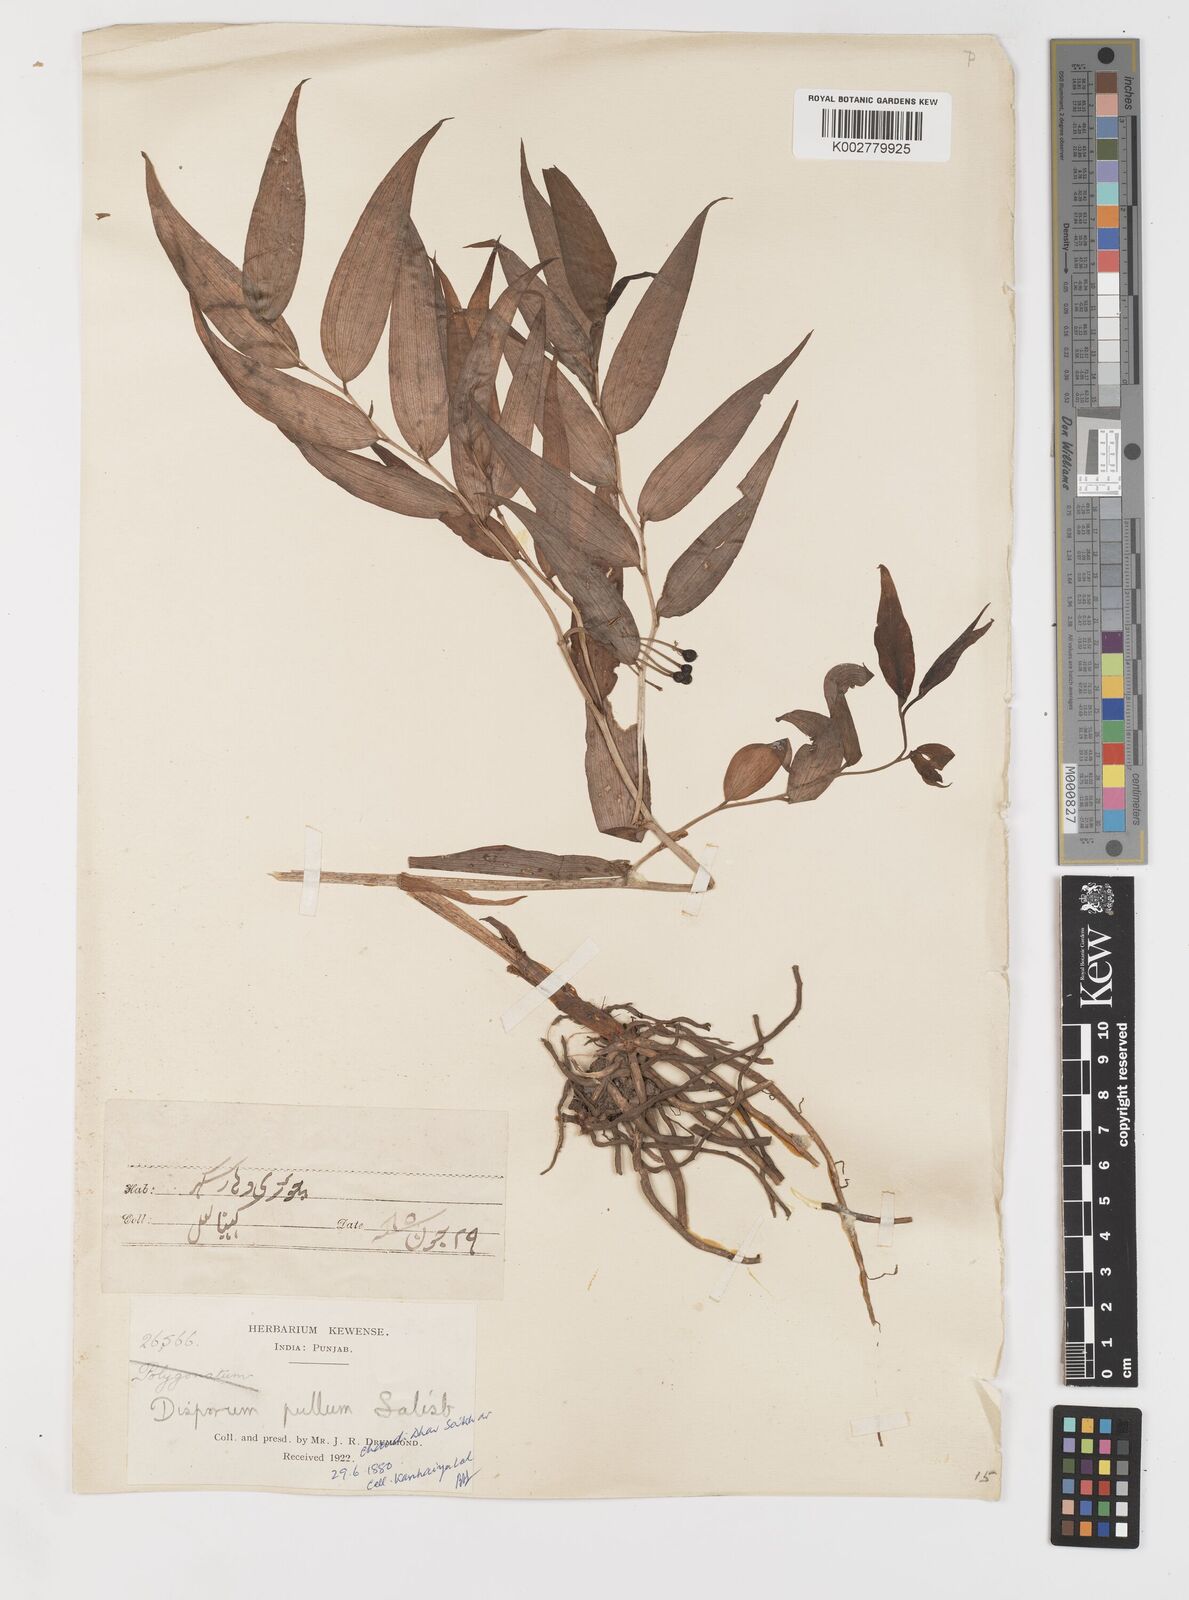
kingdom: Plantae
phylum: Tracheophyta
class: Liliopsida
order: Liliales
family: Colchicaceae
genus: Disporum
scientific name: Disporum cantoniense
